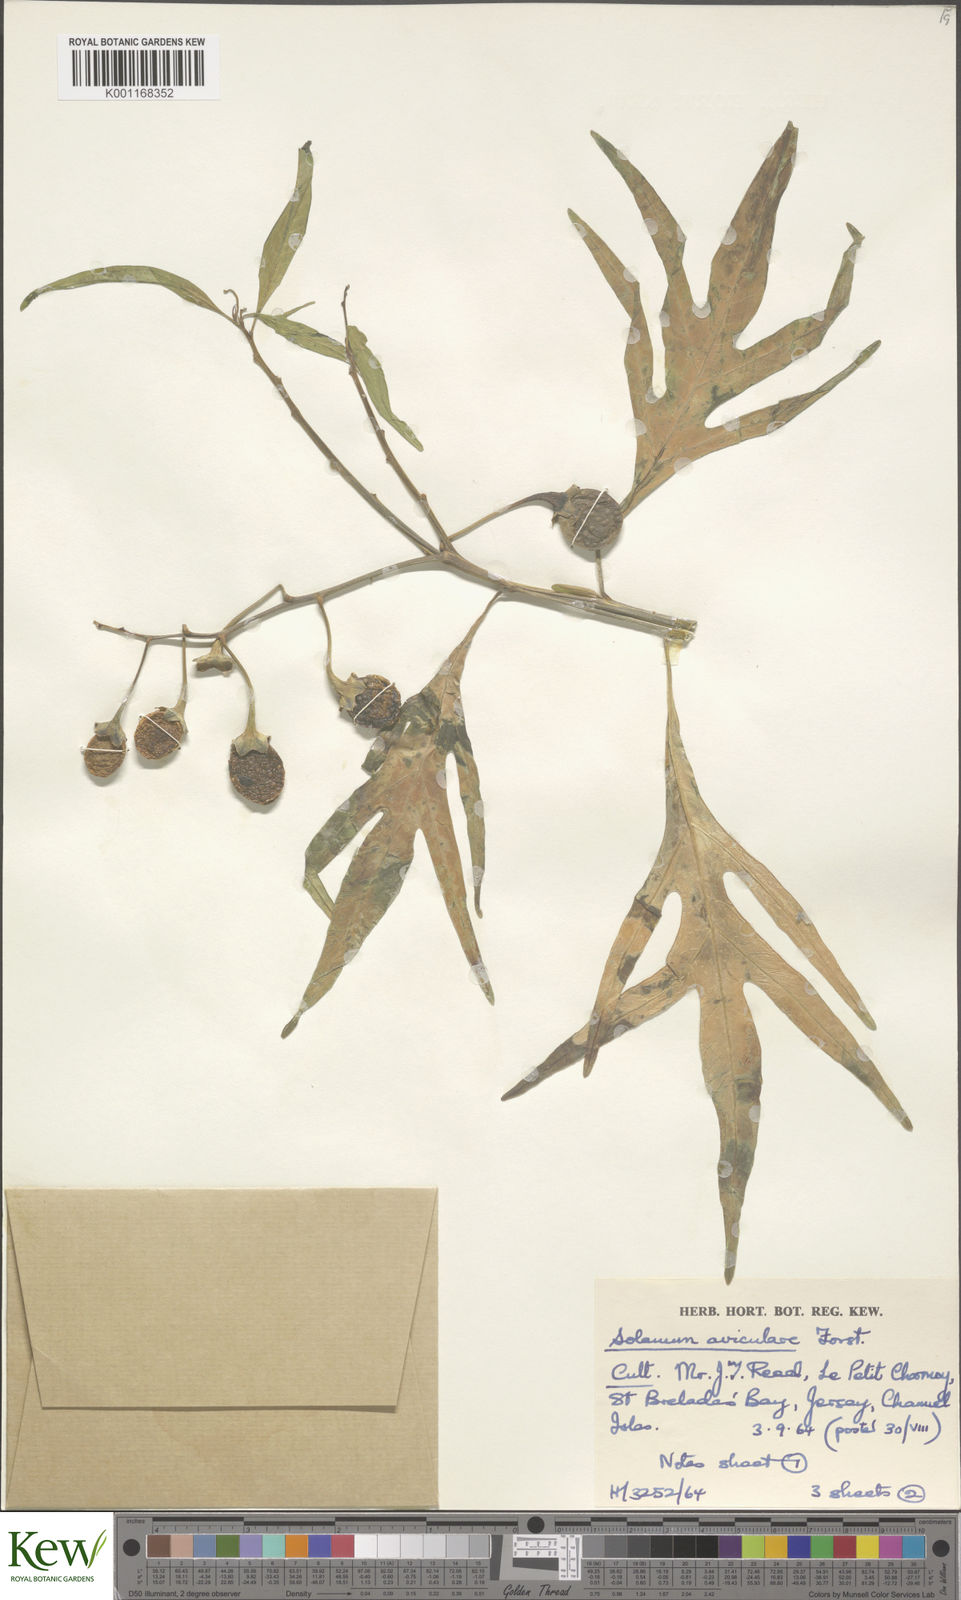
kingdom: Plantae
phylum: Tracheophyta
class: Magnoliopsida
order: Solanales
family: Solanaceae
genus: Solanum
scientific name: Solanum aviculare
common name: New zealand nightshade
